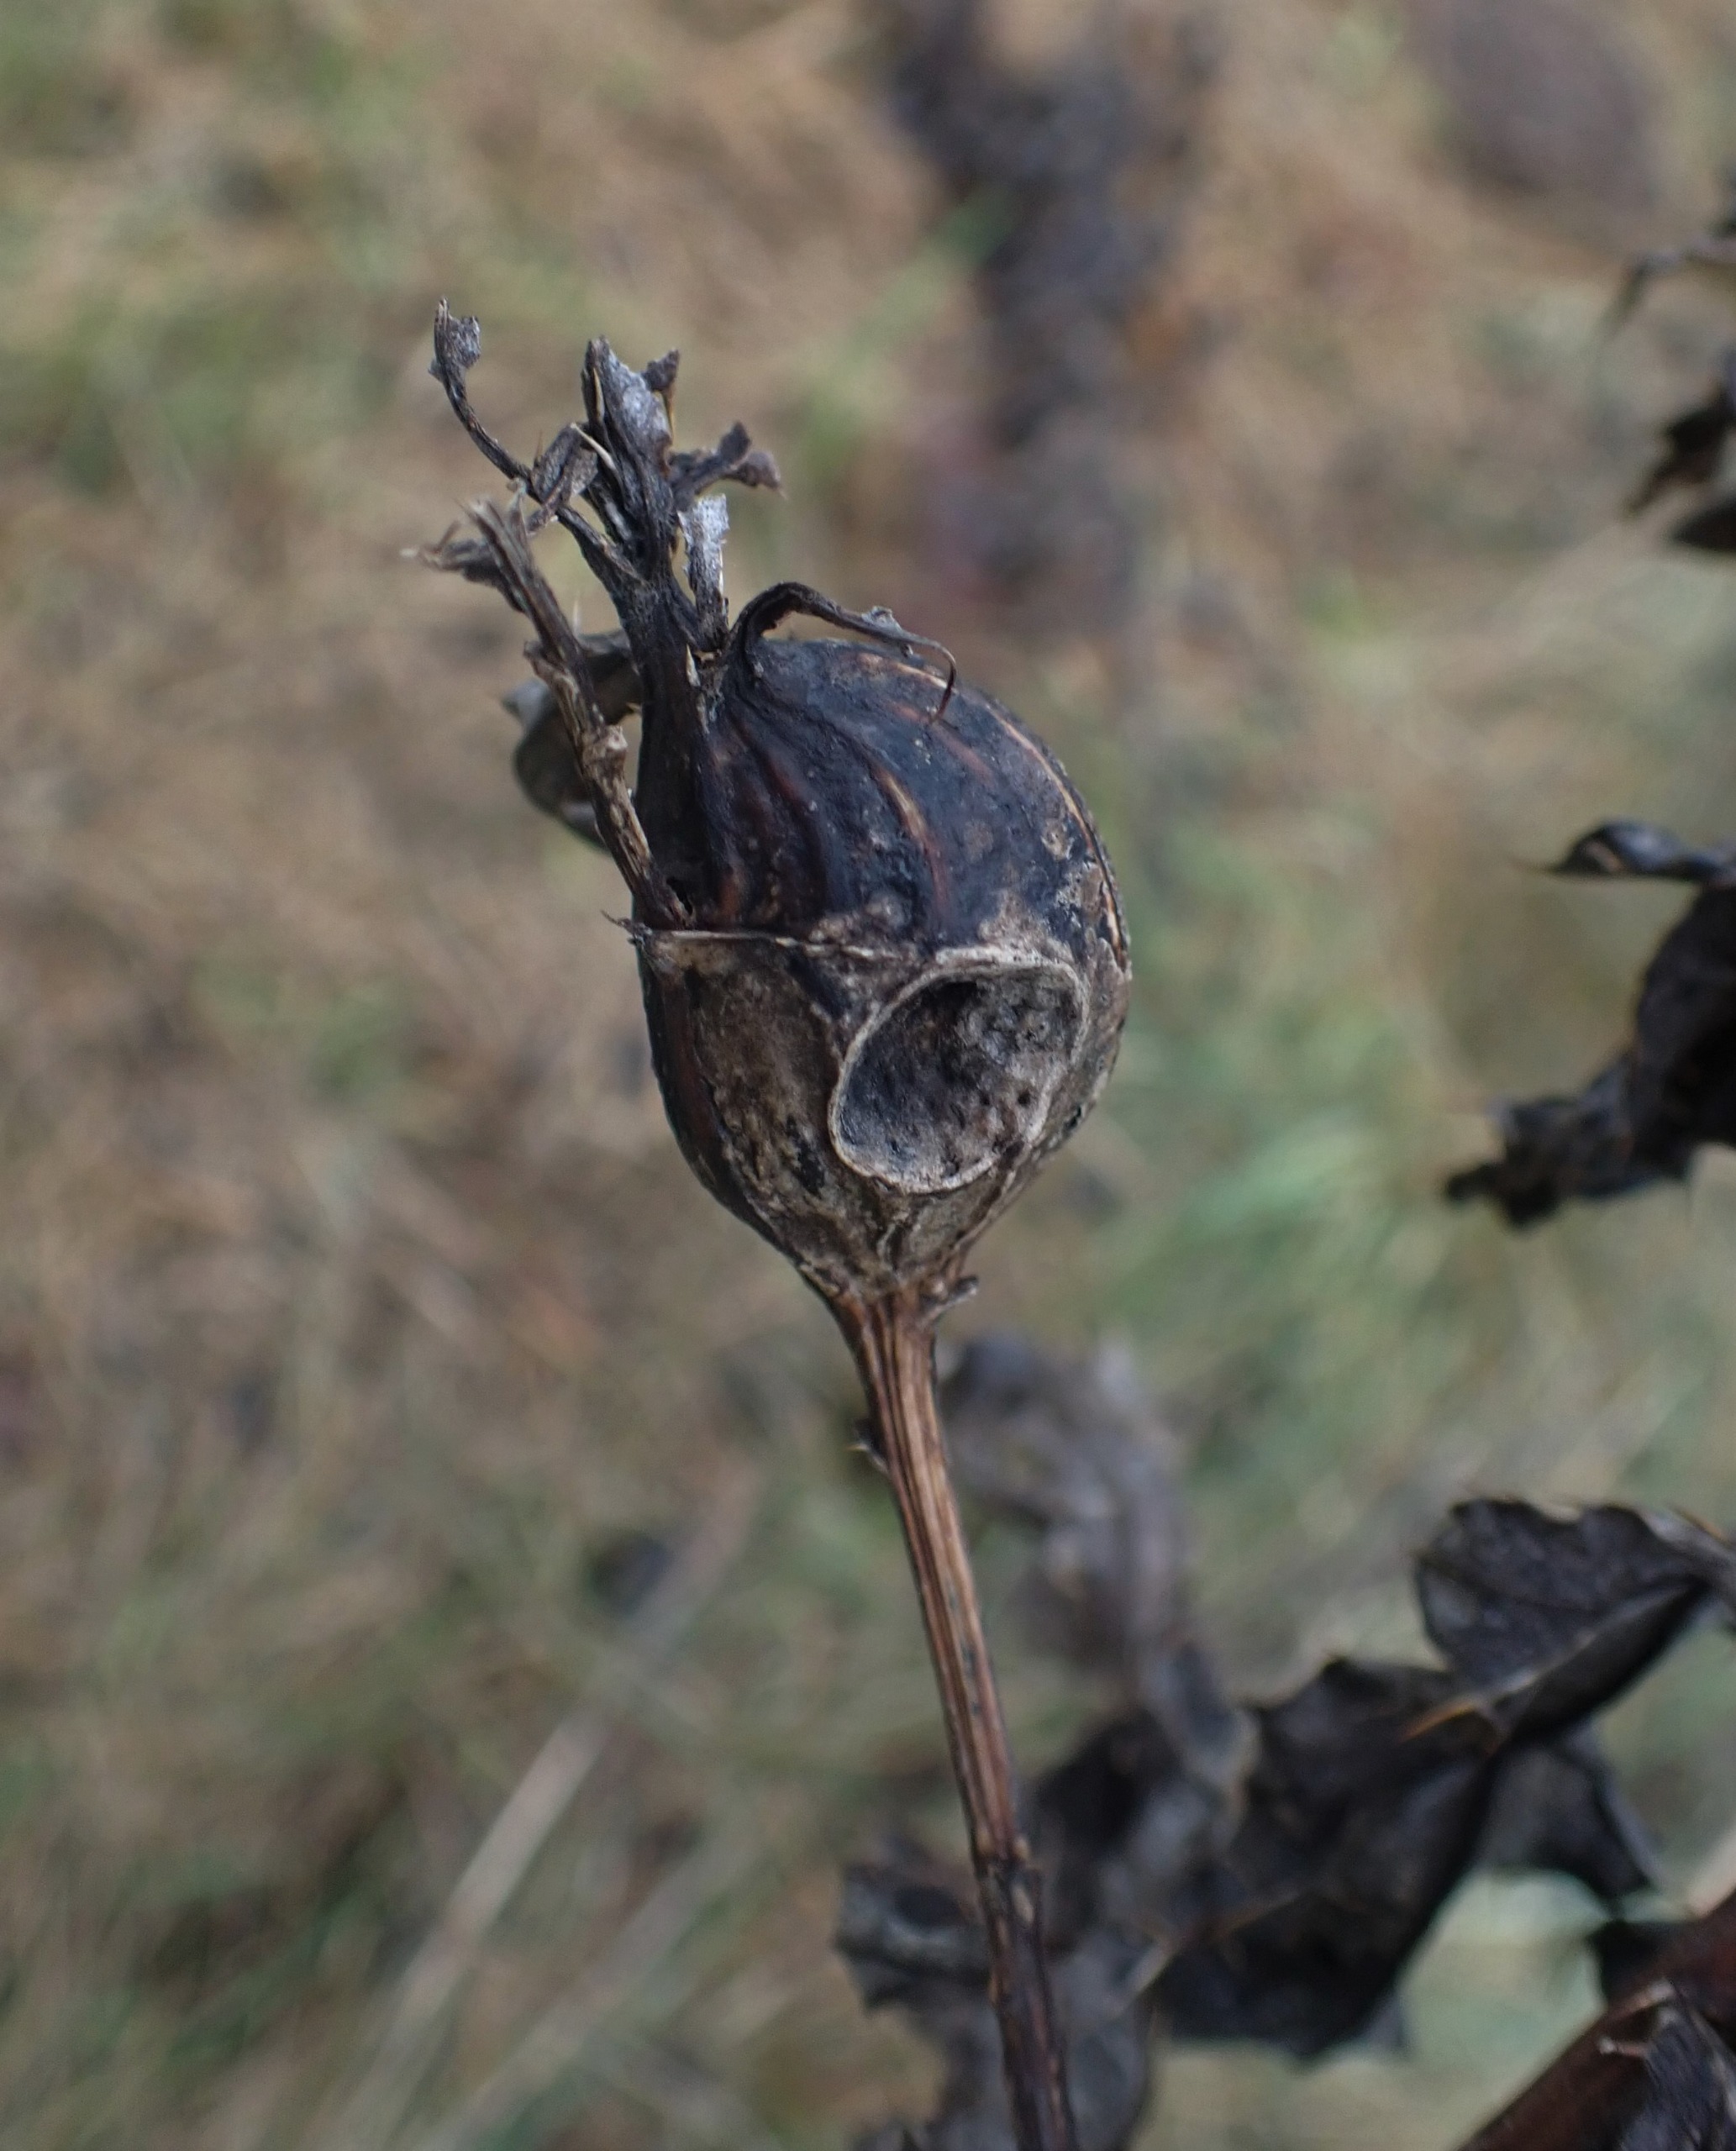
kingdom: Animalia
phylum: Arthropoda
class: Insecta
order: Diptera
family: Tephritidae
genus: Urophora
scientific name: Urophora cardui
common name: Tidselbåndflue
